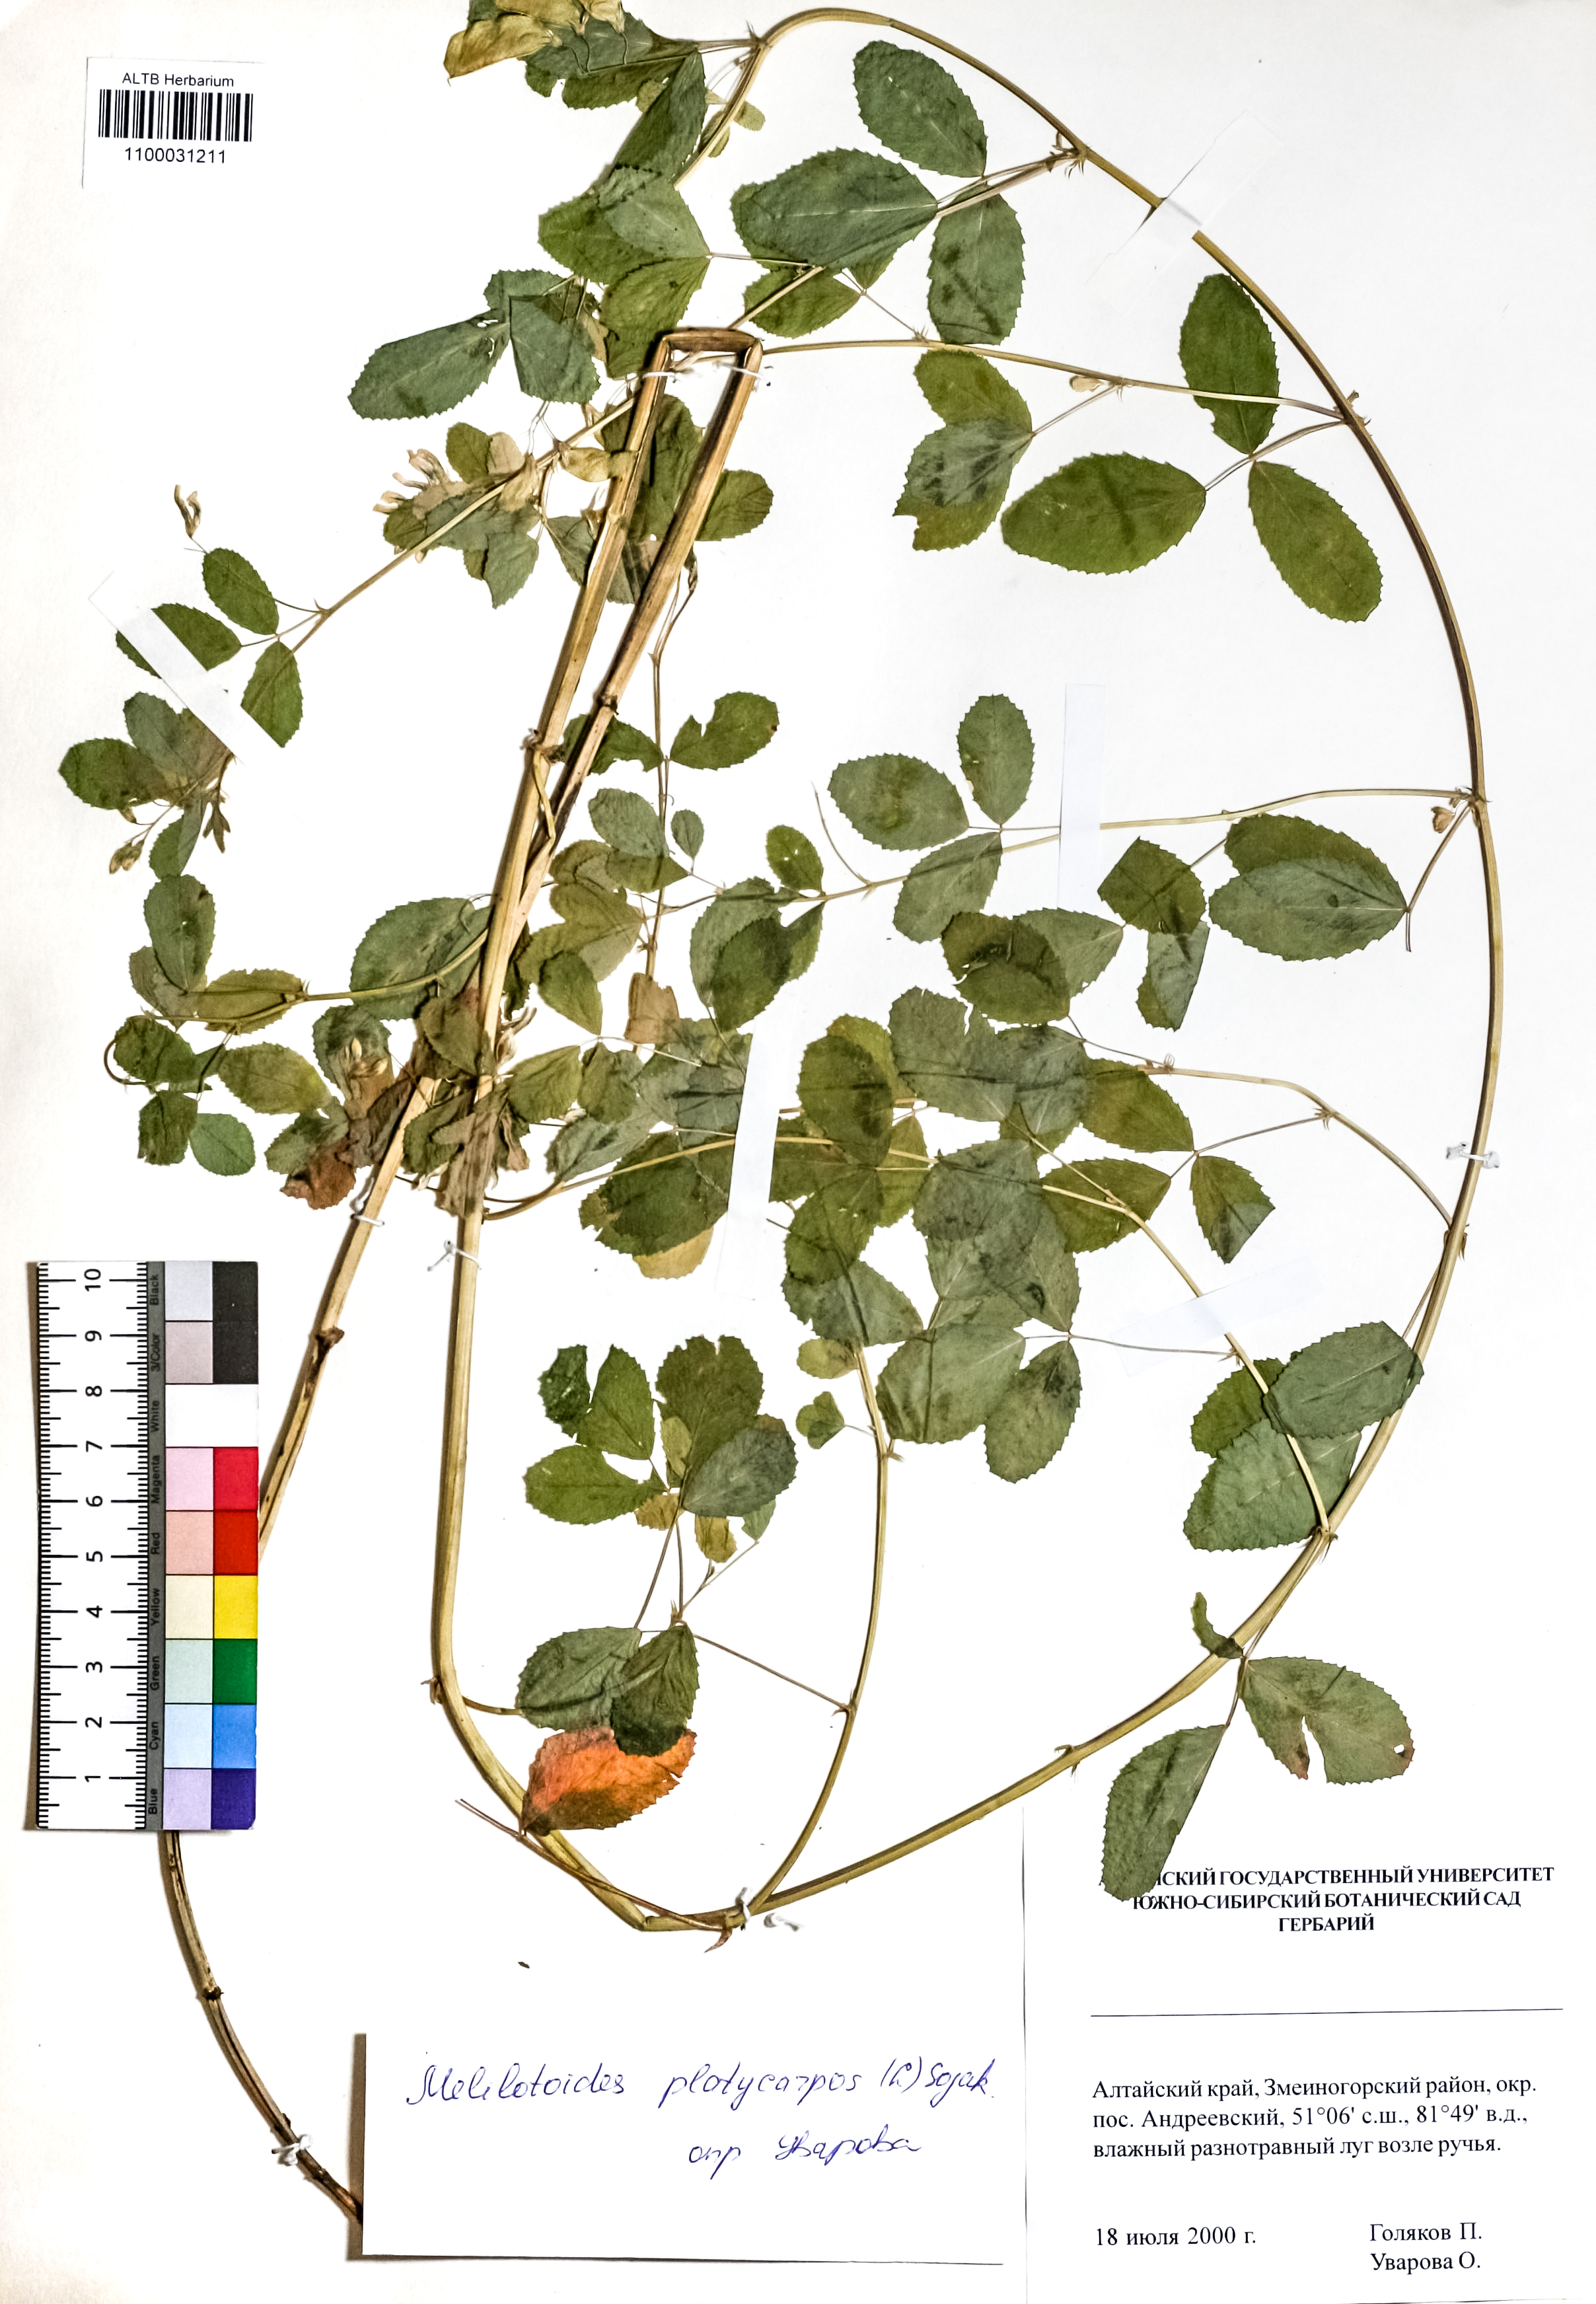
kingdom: Plantae
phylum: Tracheophyta
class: Magnoliopsida
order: Fabales
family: Fabaceae
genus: Medicago
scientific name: Medicago platycarpos
